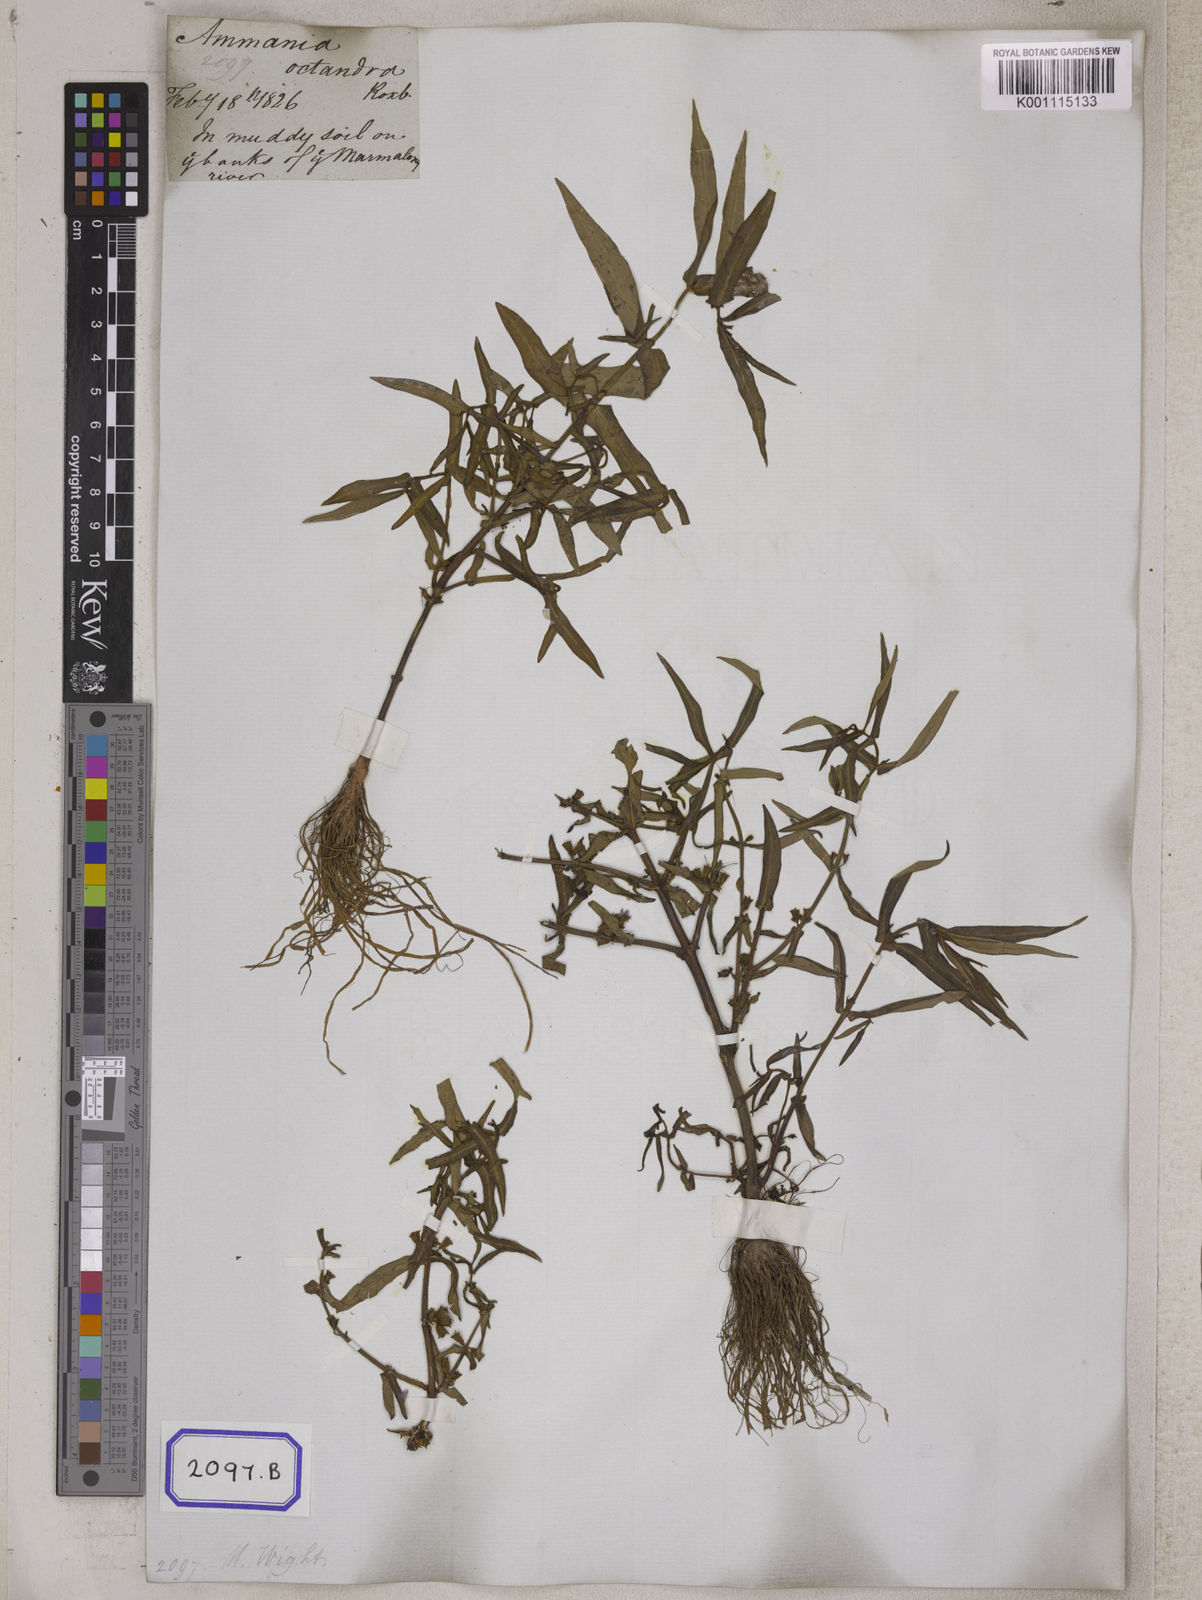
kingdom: Plantae
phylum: Tracheophyta
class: Magnoliopsida
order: Myrtales
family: Lythraceae
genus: Ammannia
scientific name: Ammannia octandra
